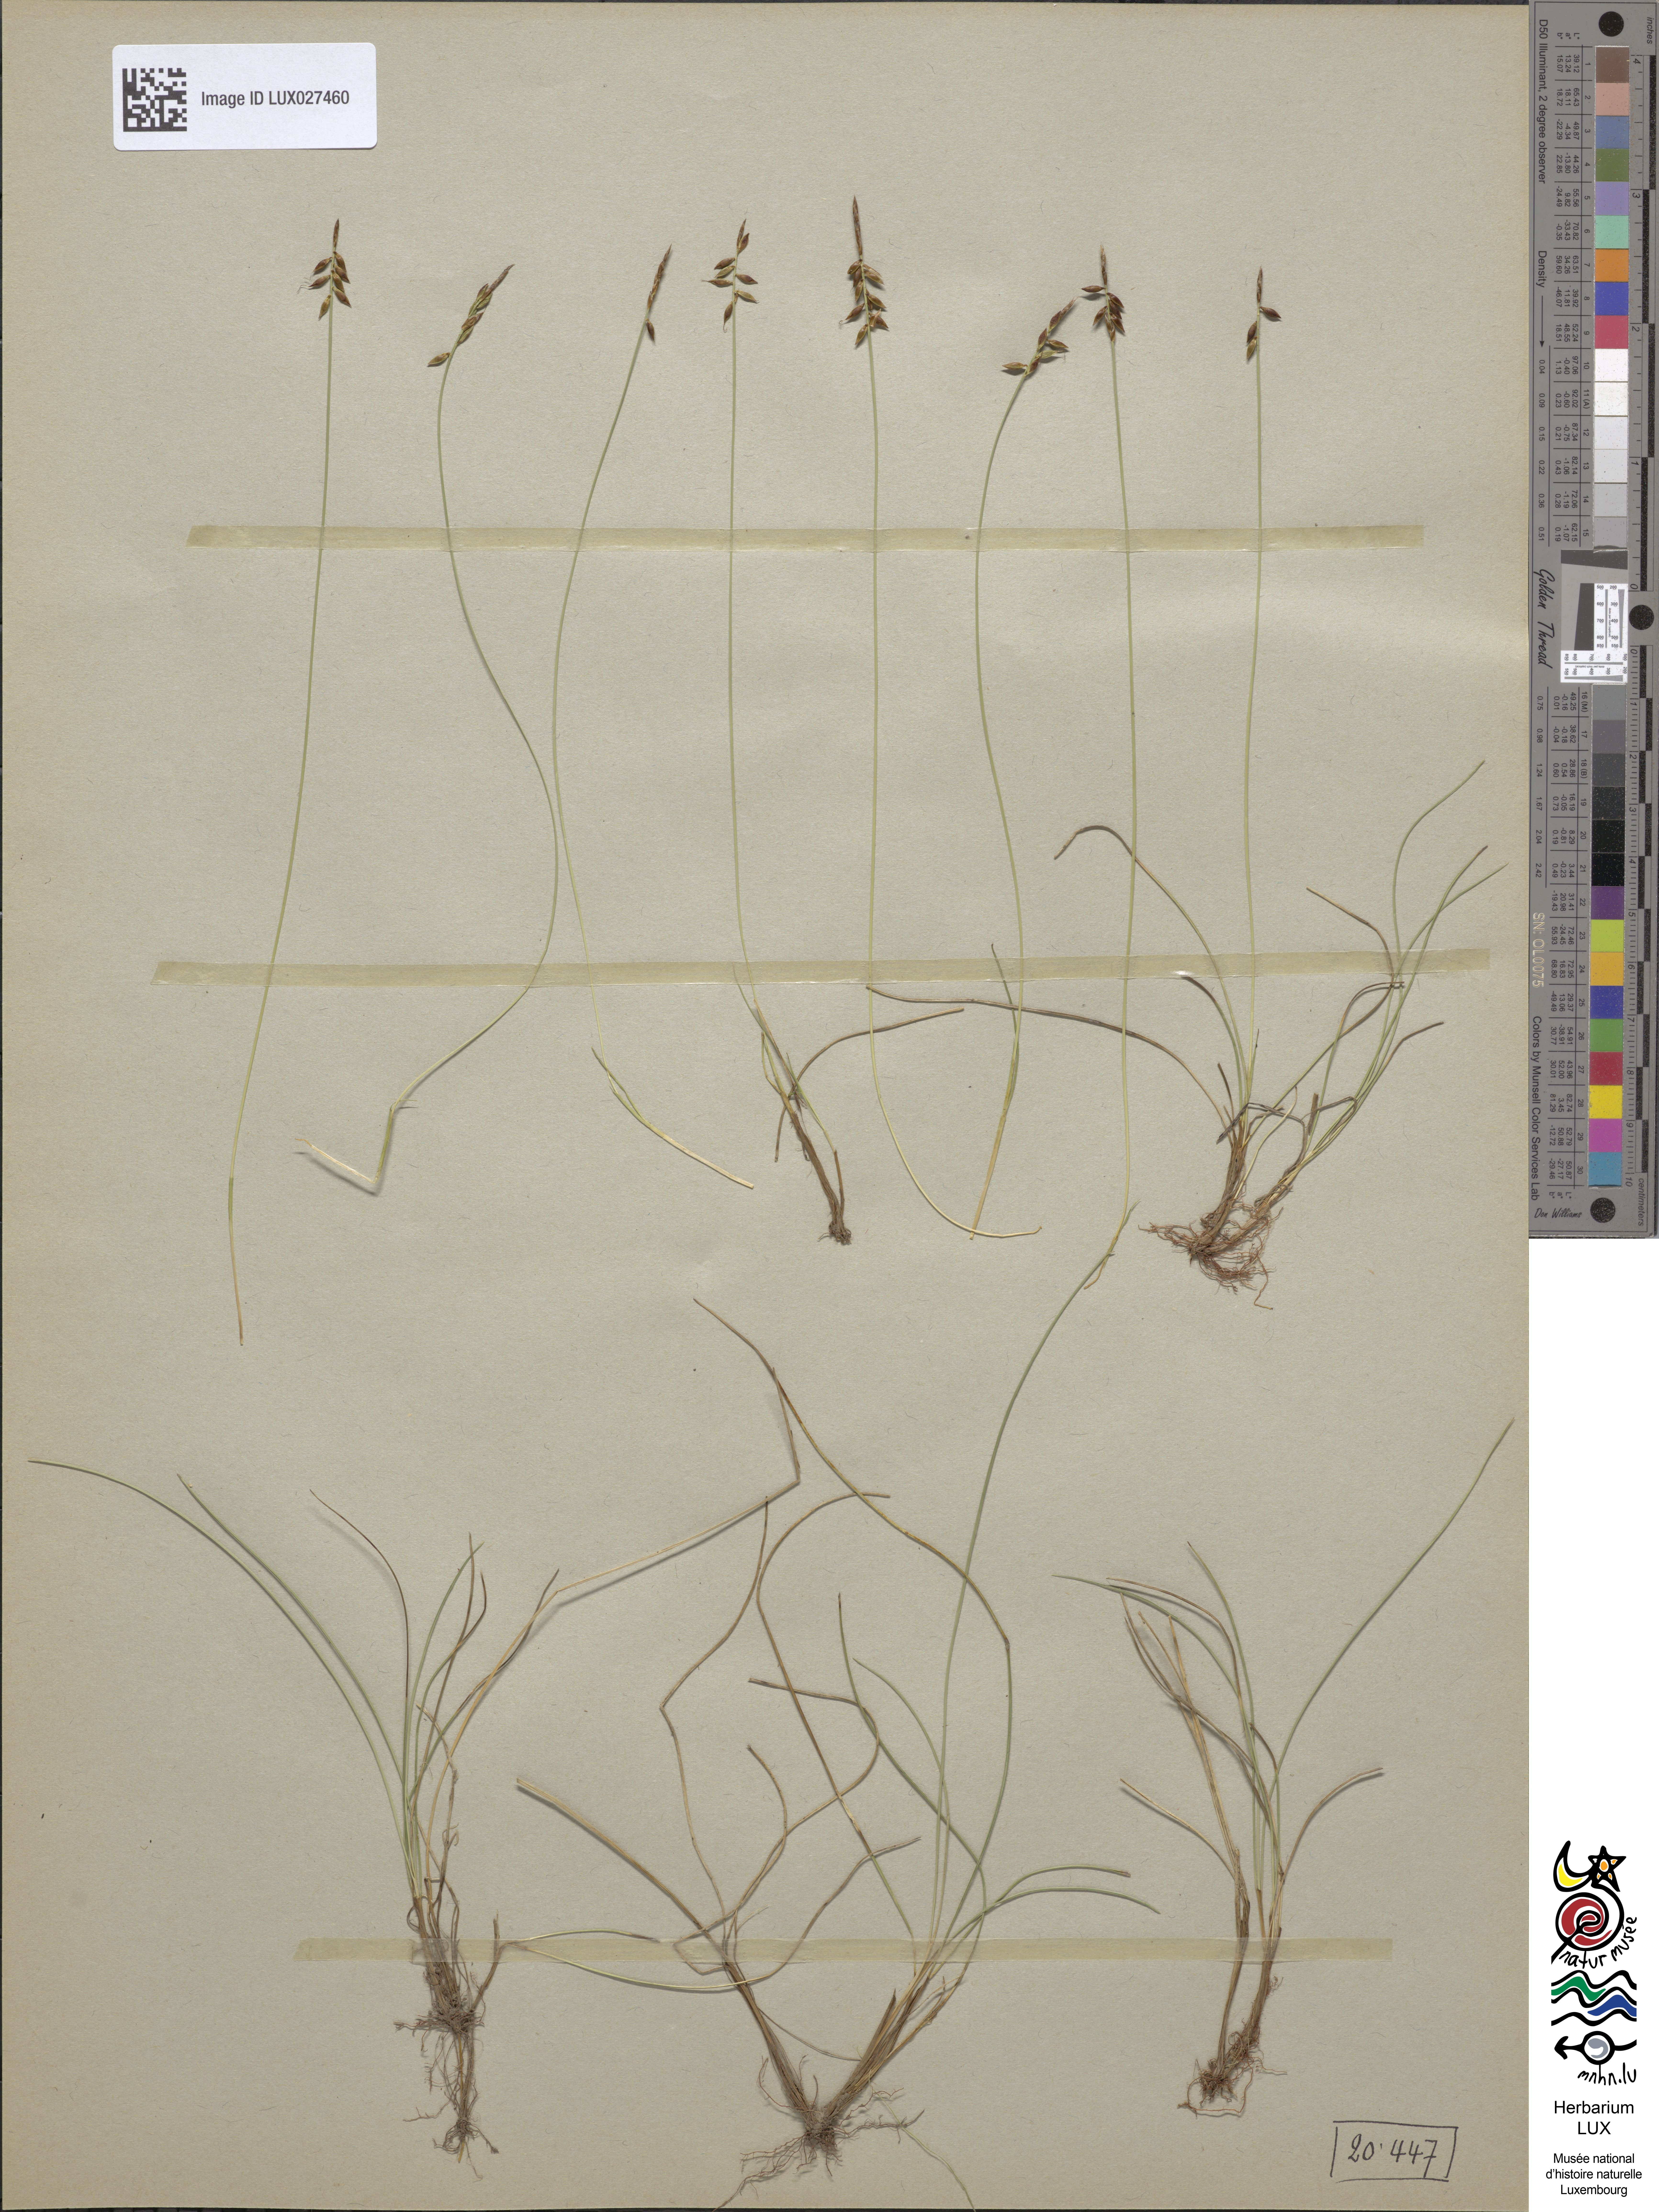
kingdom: Plantae
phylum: Tracheophyta
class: Liliopsida
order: Poales
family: Cyperaceae
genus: Carex
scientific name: Carex pulicaris
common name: Flea sedge
